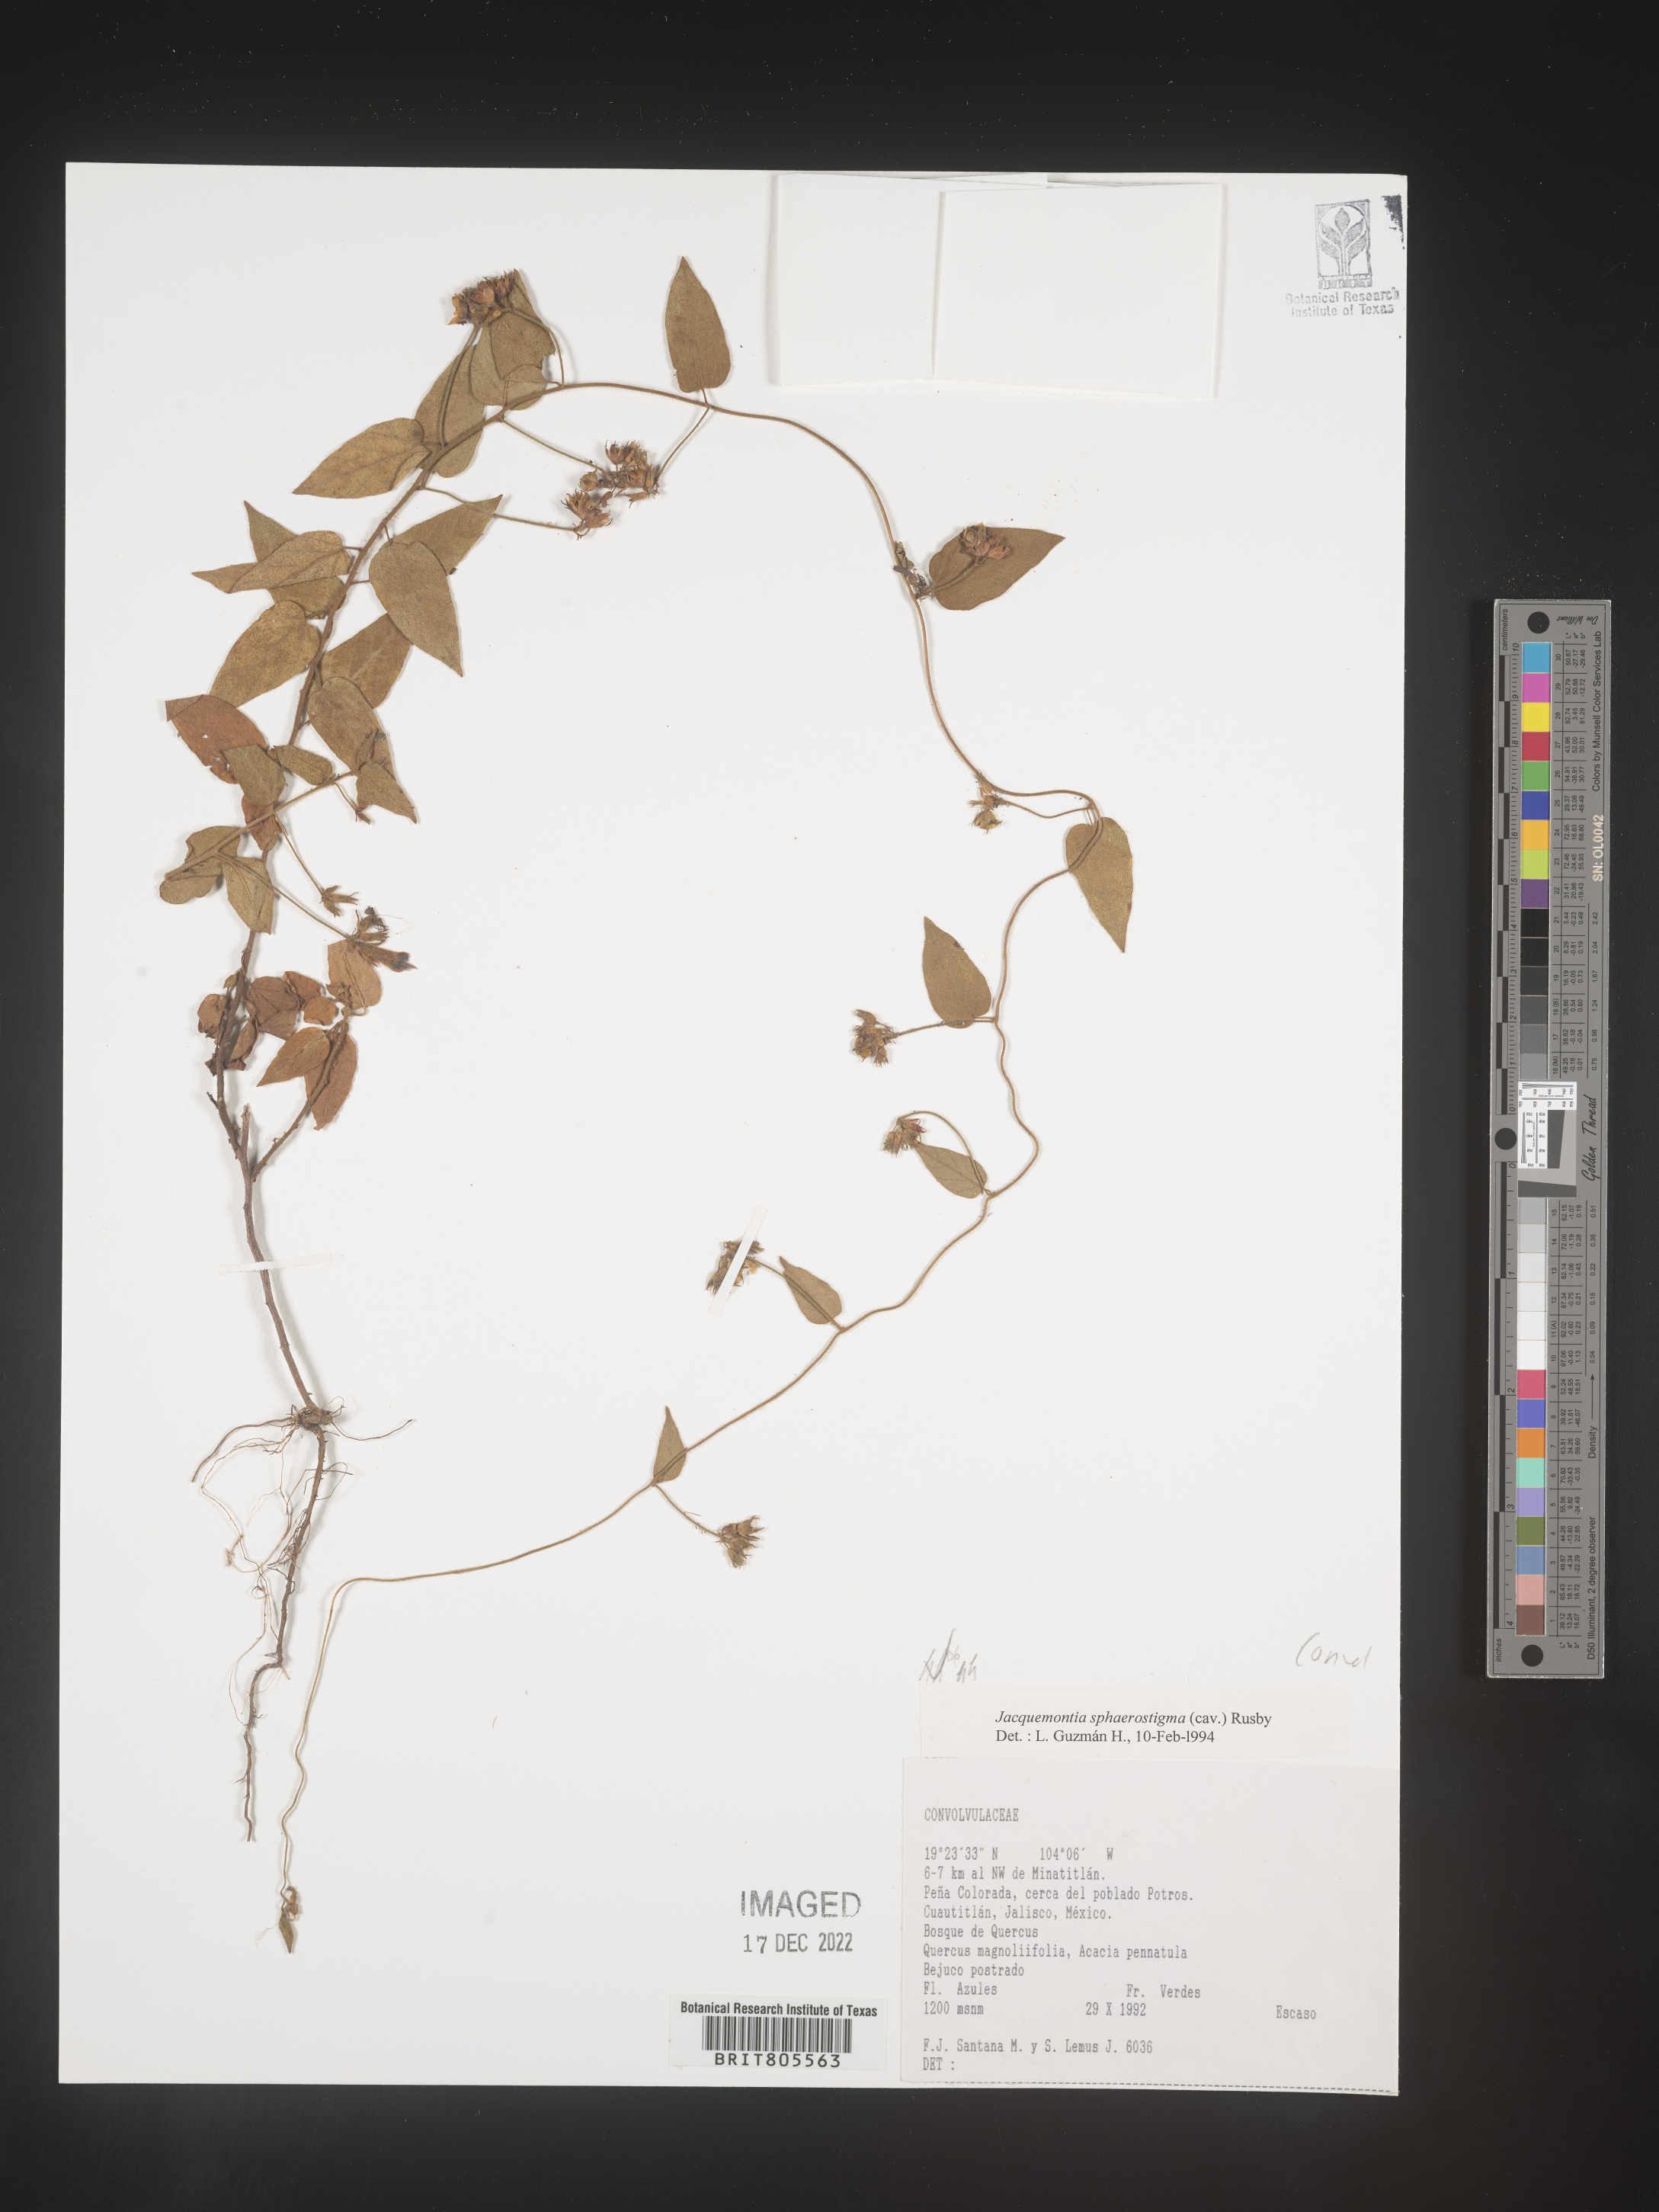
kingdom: Plantae
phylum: Tracheophyta
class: Magnoliopsida
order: Solanales
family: Convolvulaceae
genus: Jacquemontia
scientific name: Jacquemontia
